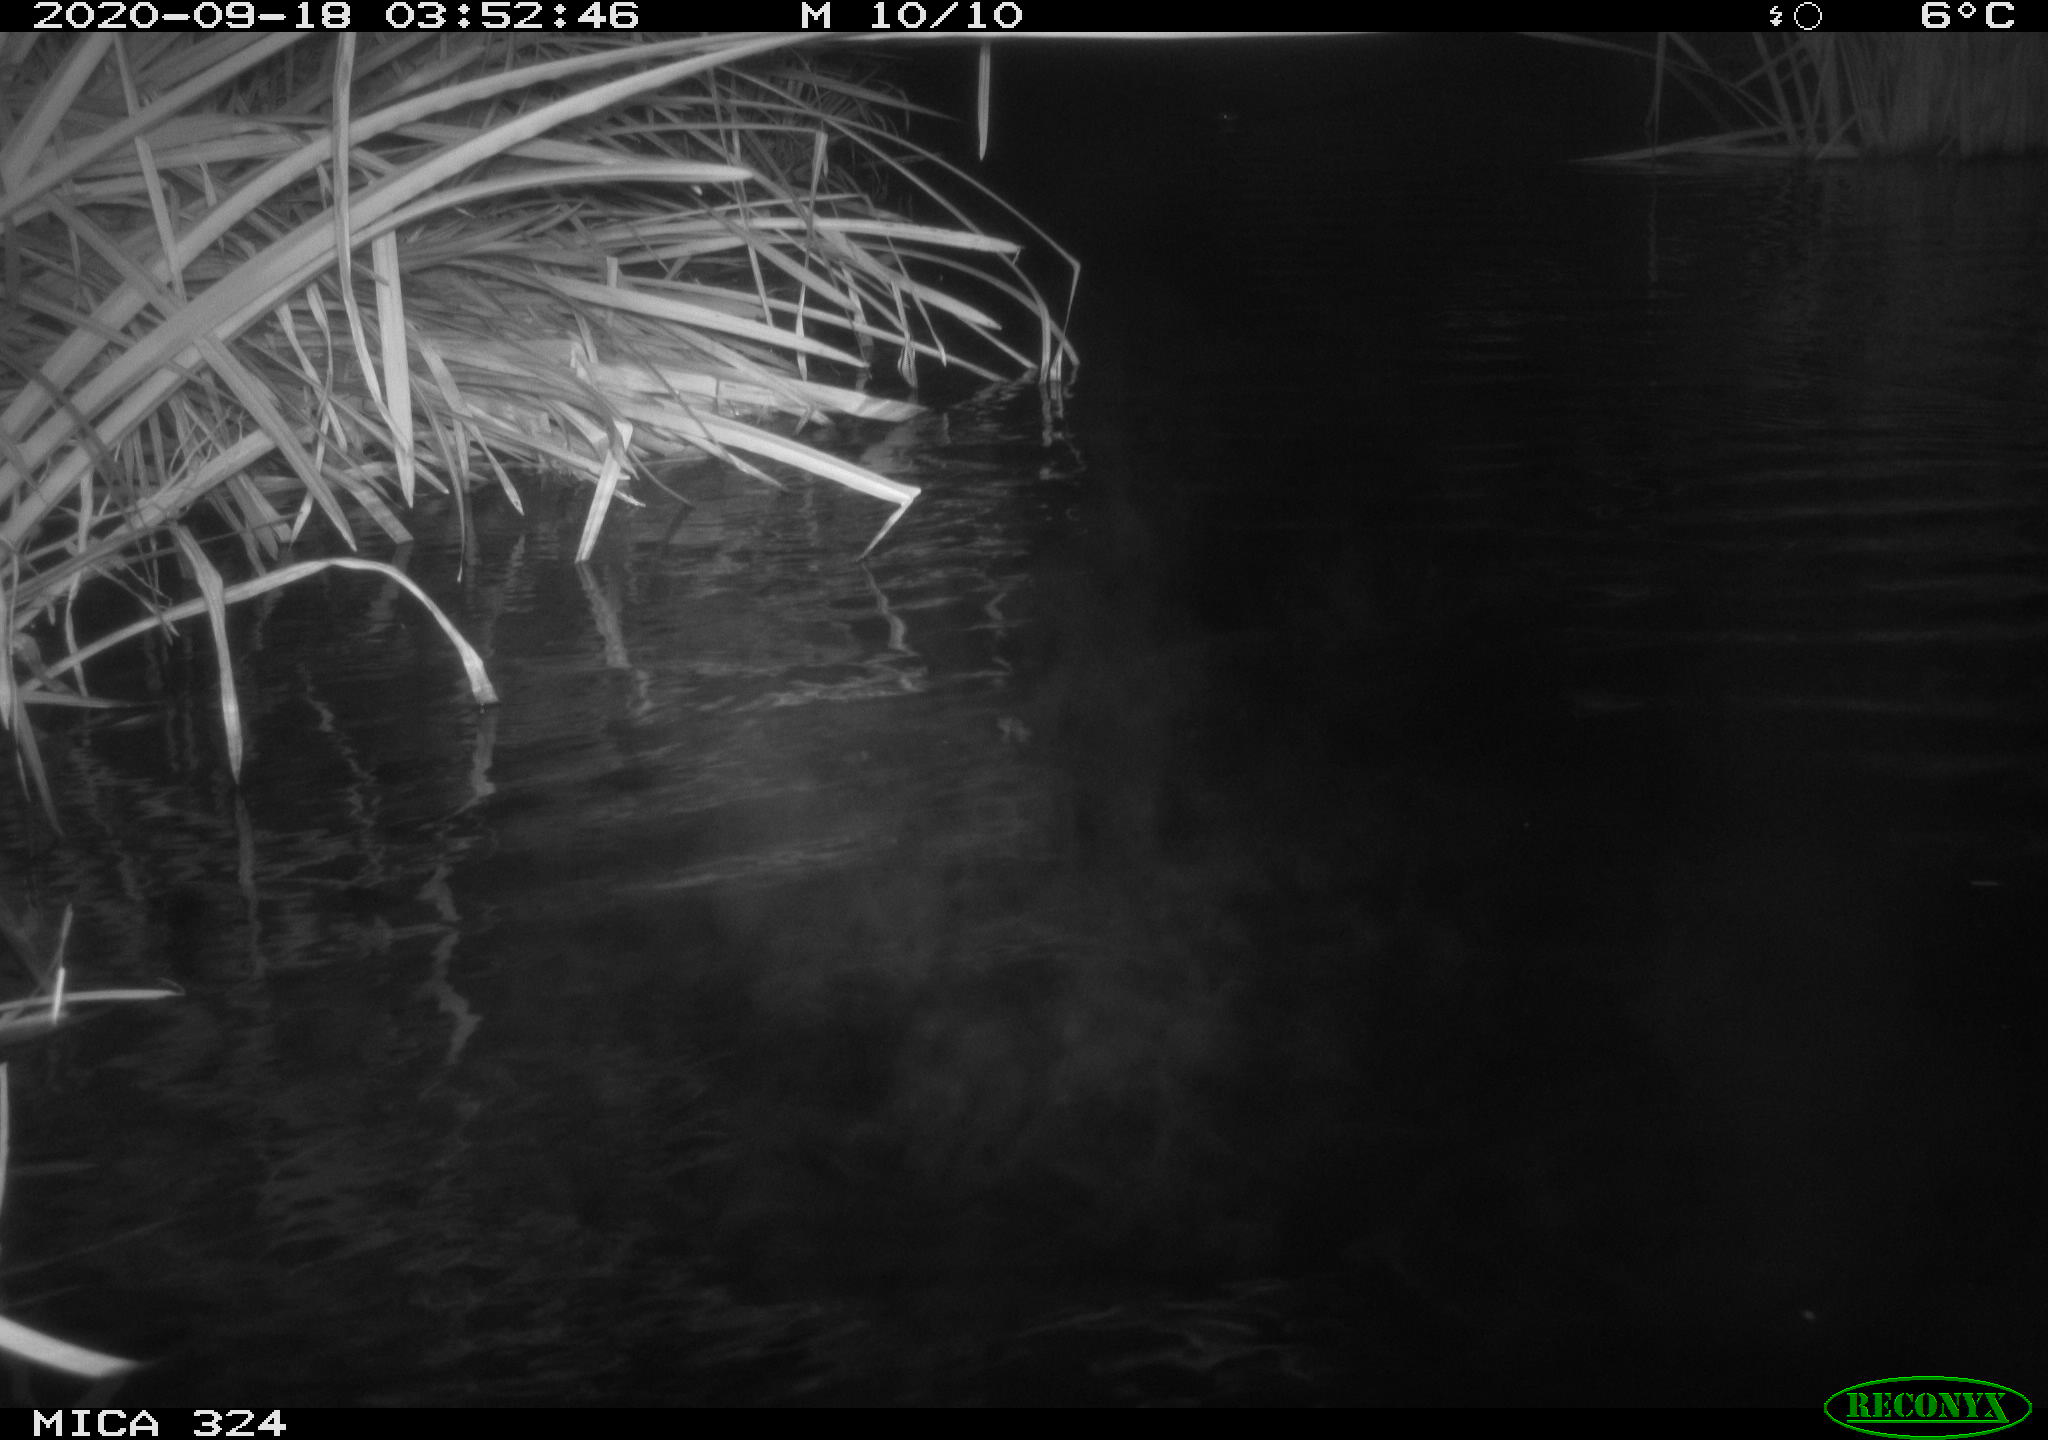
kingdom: Animalia
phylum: Chordata
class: Mammalia
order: Rodentia
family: Cricetidae
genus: Ondatra
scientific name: Ondatra zibethicus
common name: Muskrat
